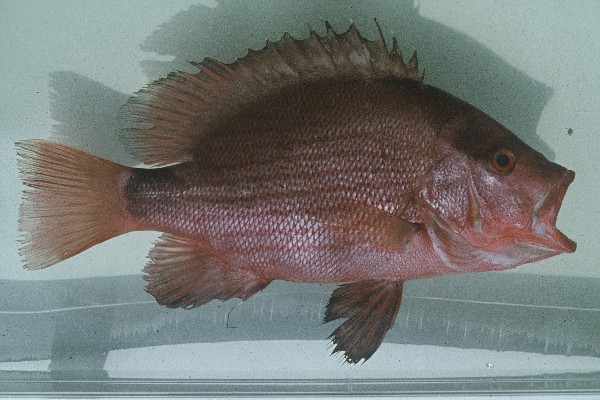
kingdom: Animalia
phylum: Chordata
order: Perciformes
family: Lutjanidae
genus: Lutjanus
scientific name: Lutjanus sanguineus
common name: Humphead snapper
